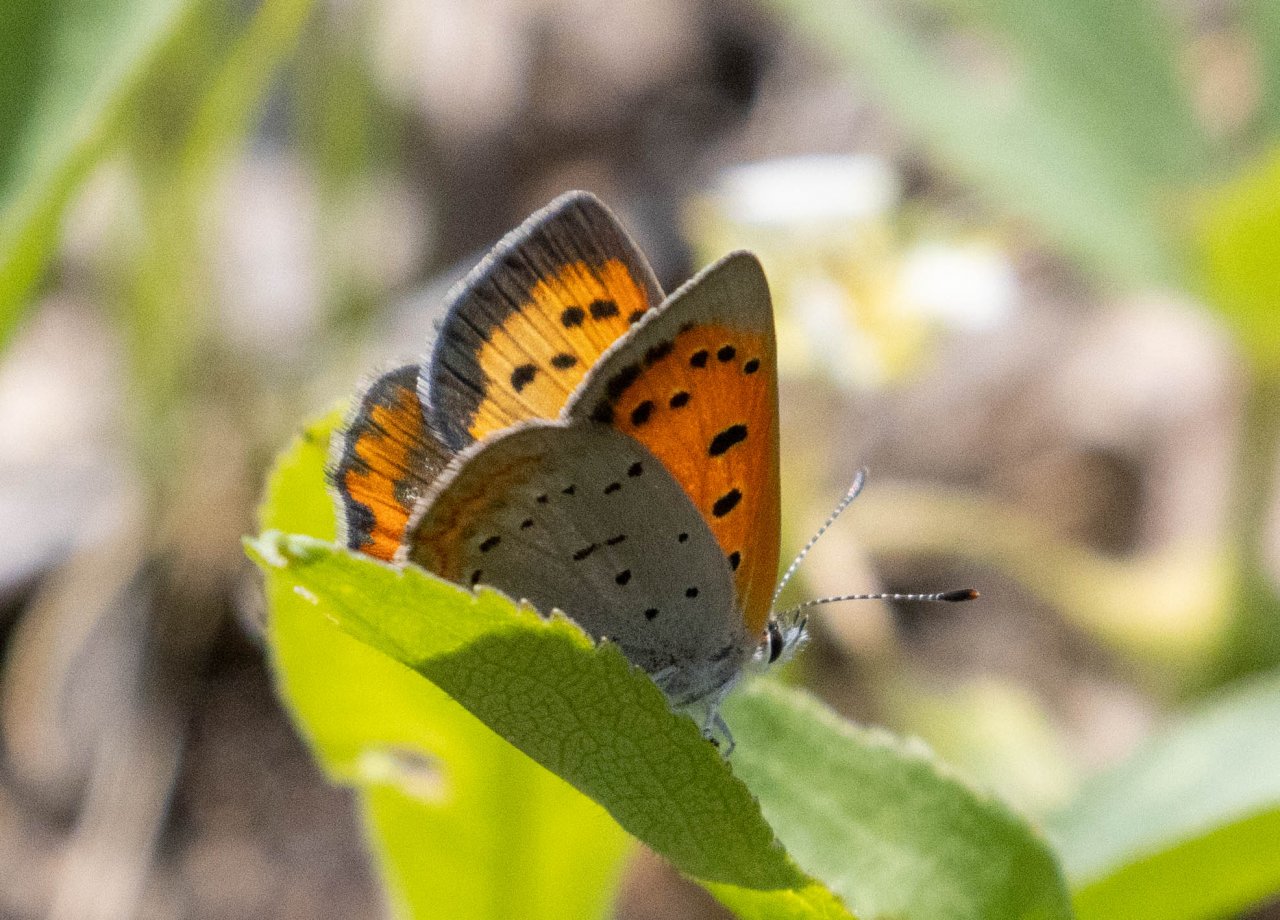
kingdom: Animalia
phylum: Arthropoda
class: Insecta
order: Lepidoptera
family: Lycaenidae
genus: Lycaena
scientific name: Lycaena phlaeas
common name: American Copper
